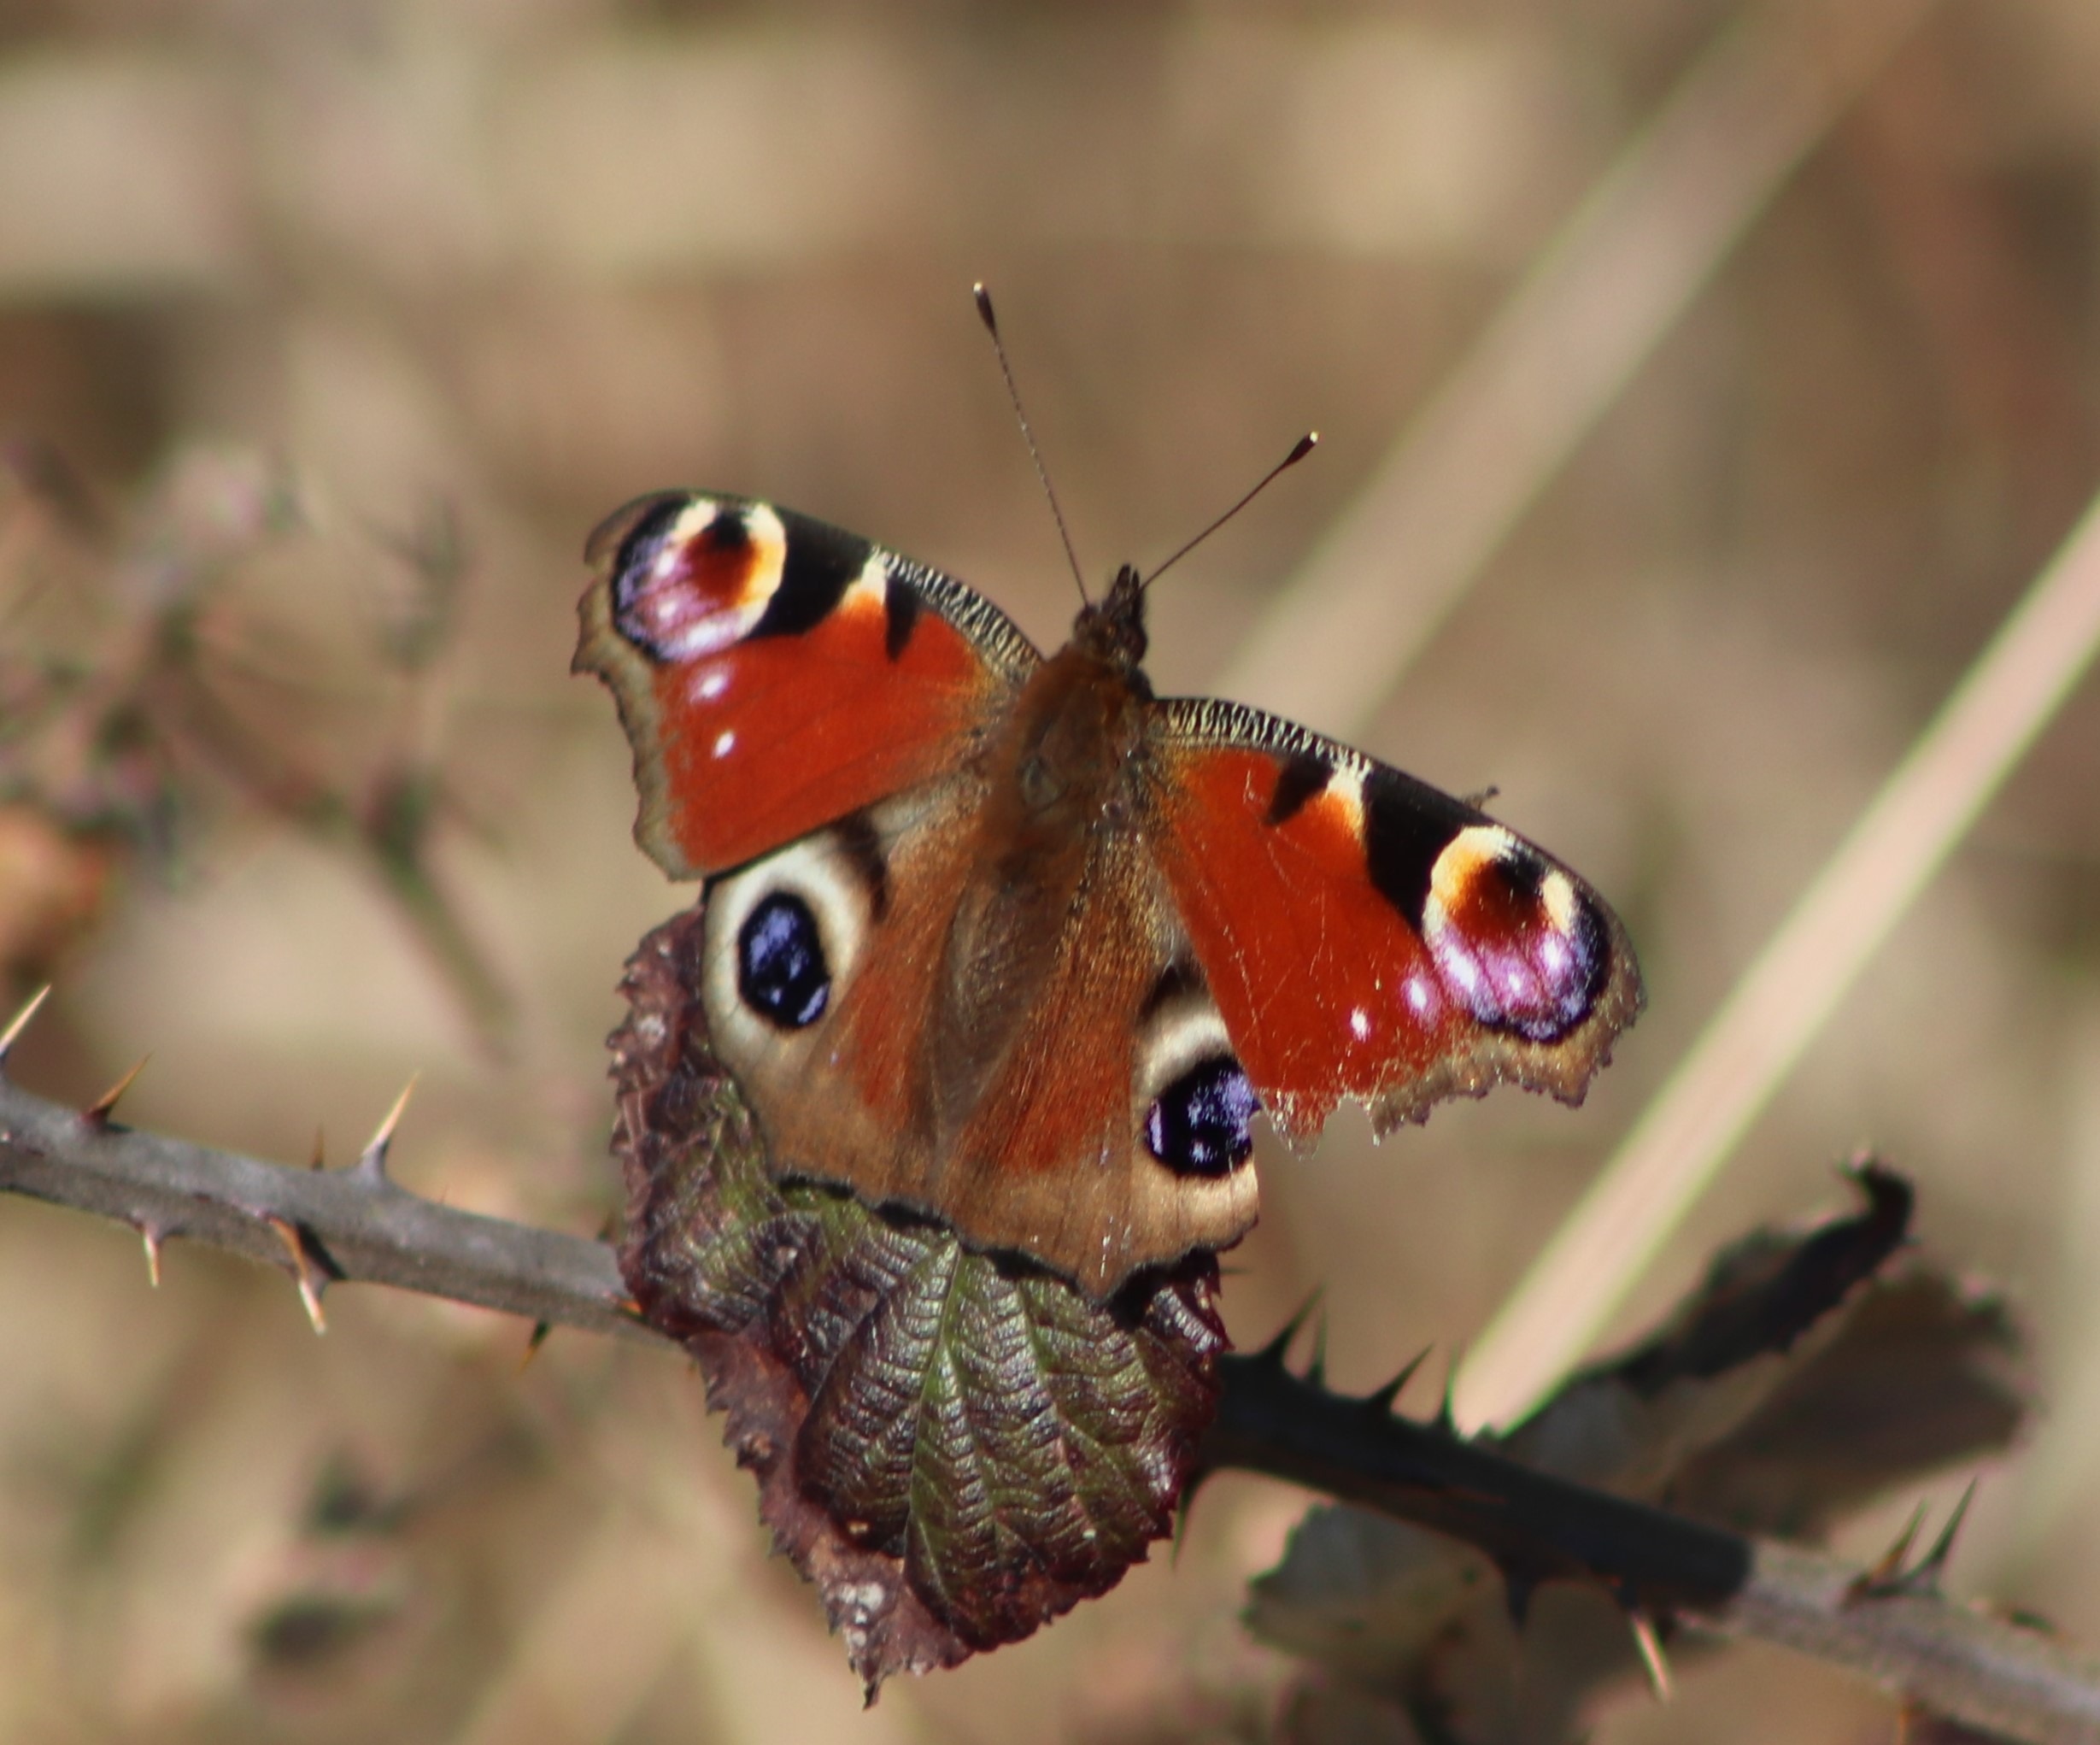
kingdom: Animalia
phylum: Arthropoda
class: Insecta
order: Lepidoptera
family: Nymphalidae
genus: Aglais
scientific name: Aglais io
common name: Dagpåfugleøje
